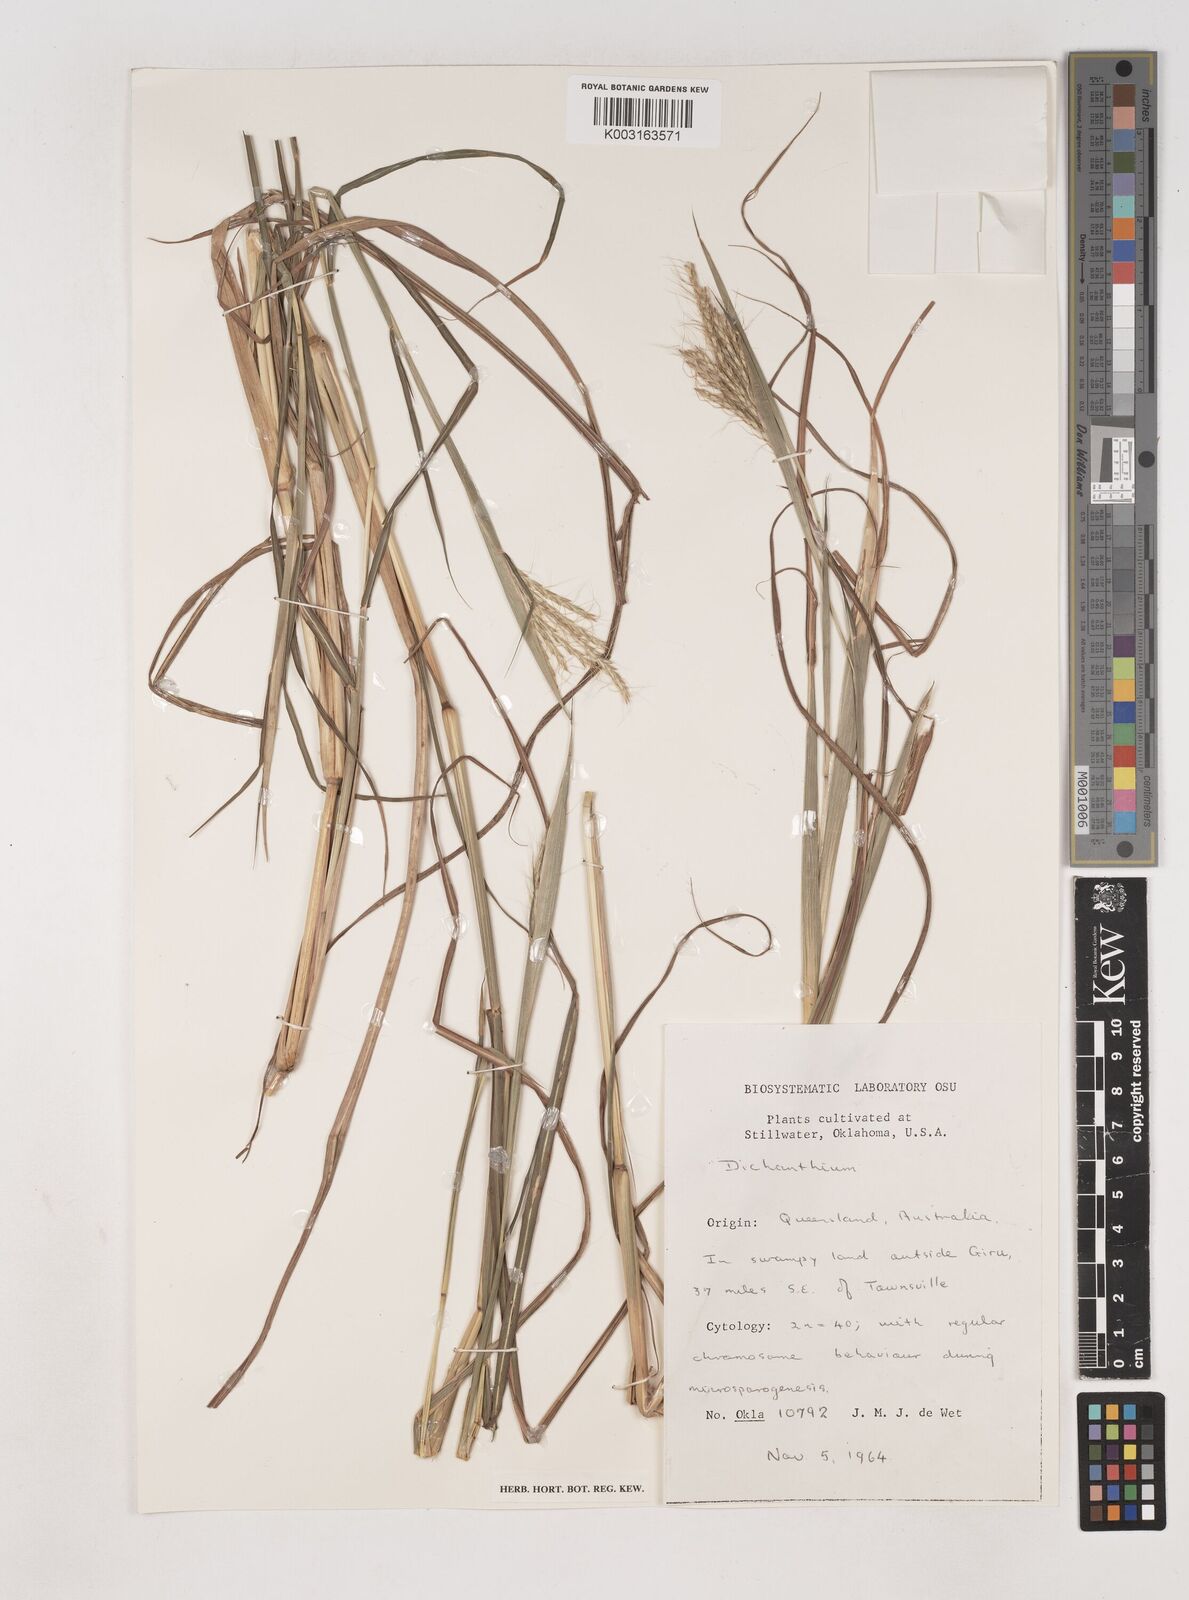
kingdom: Plantae
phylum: Tracheophyta
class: Liliopsida
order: Poales
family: Poaceae
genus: Dichanthium
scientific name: Dichanthium
